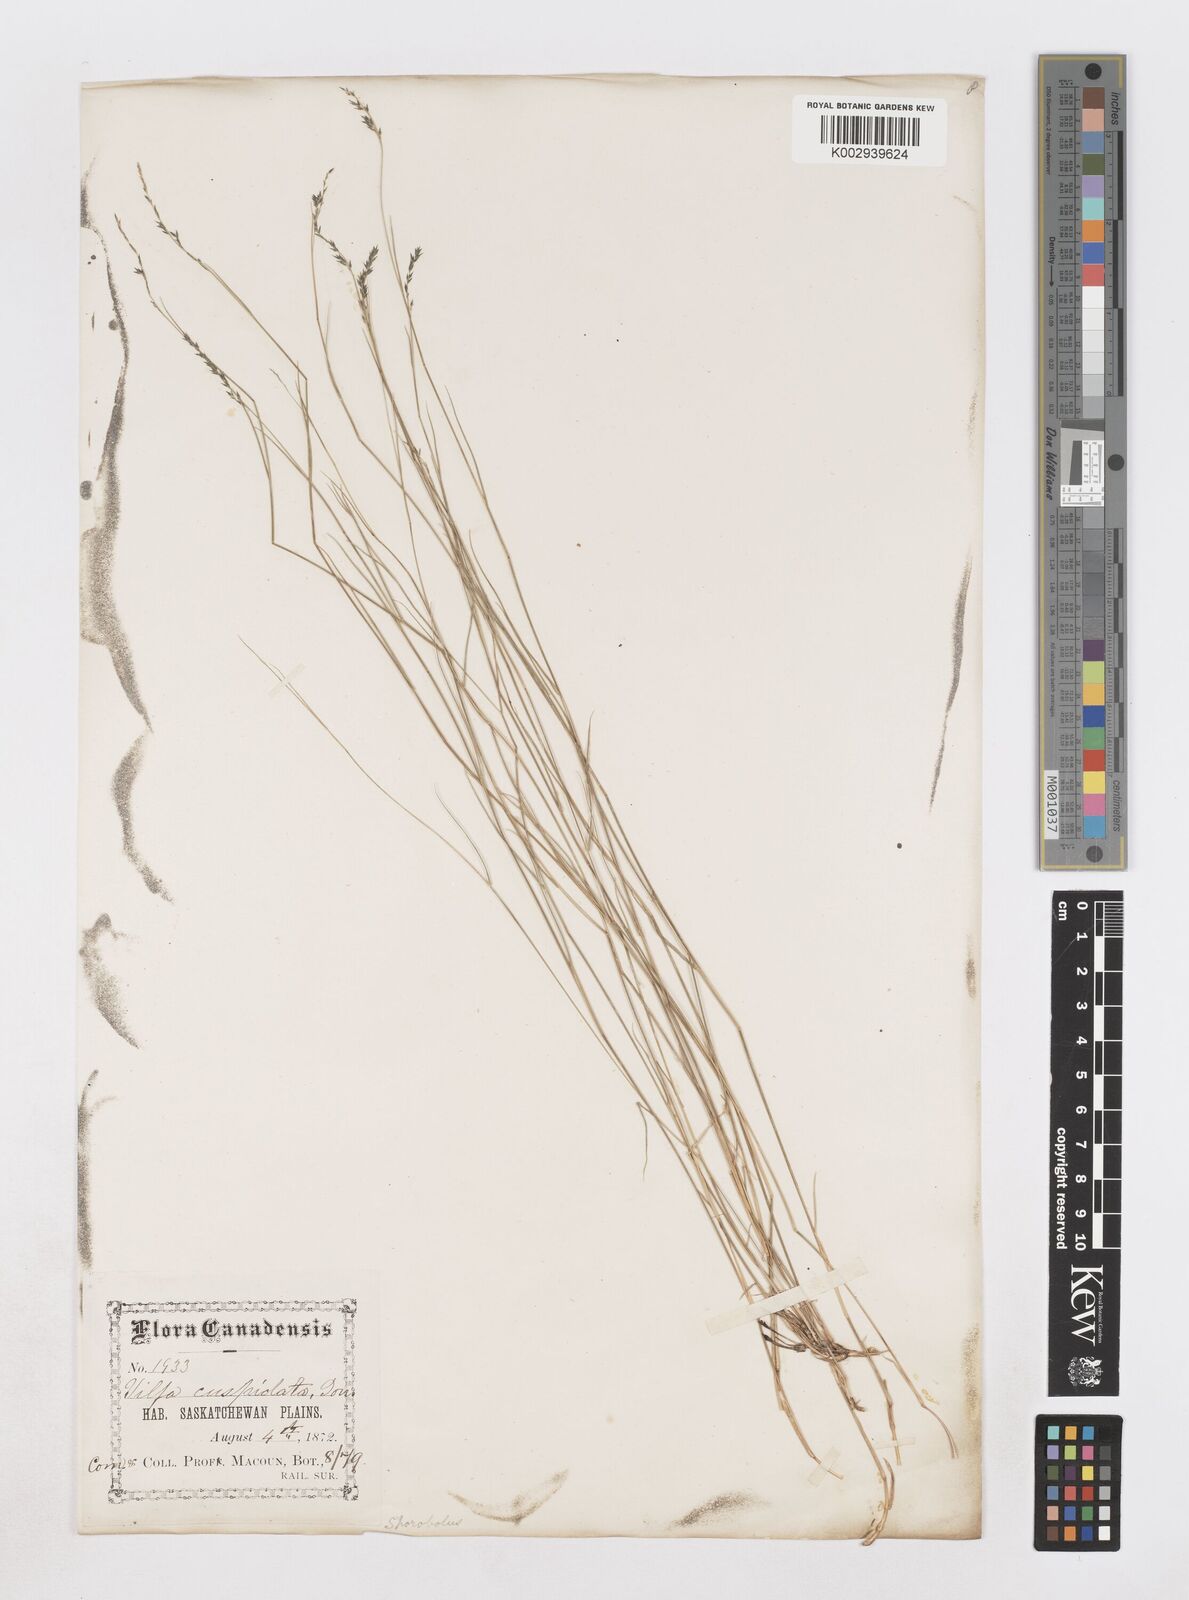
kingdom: Plantae
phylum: Tracheophyta
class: Liliopsida
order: Poales
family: Poaceae
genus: Muhlenbergia
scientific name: Muhlenbergia cuspidata
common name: Plains muhly
